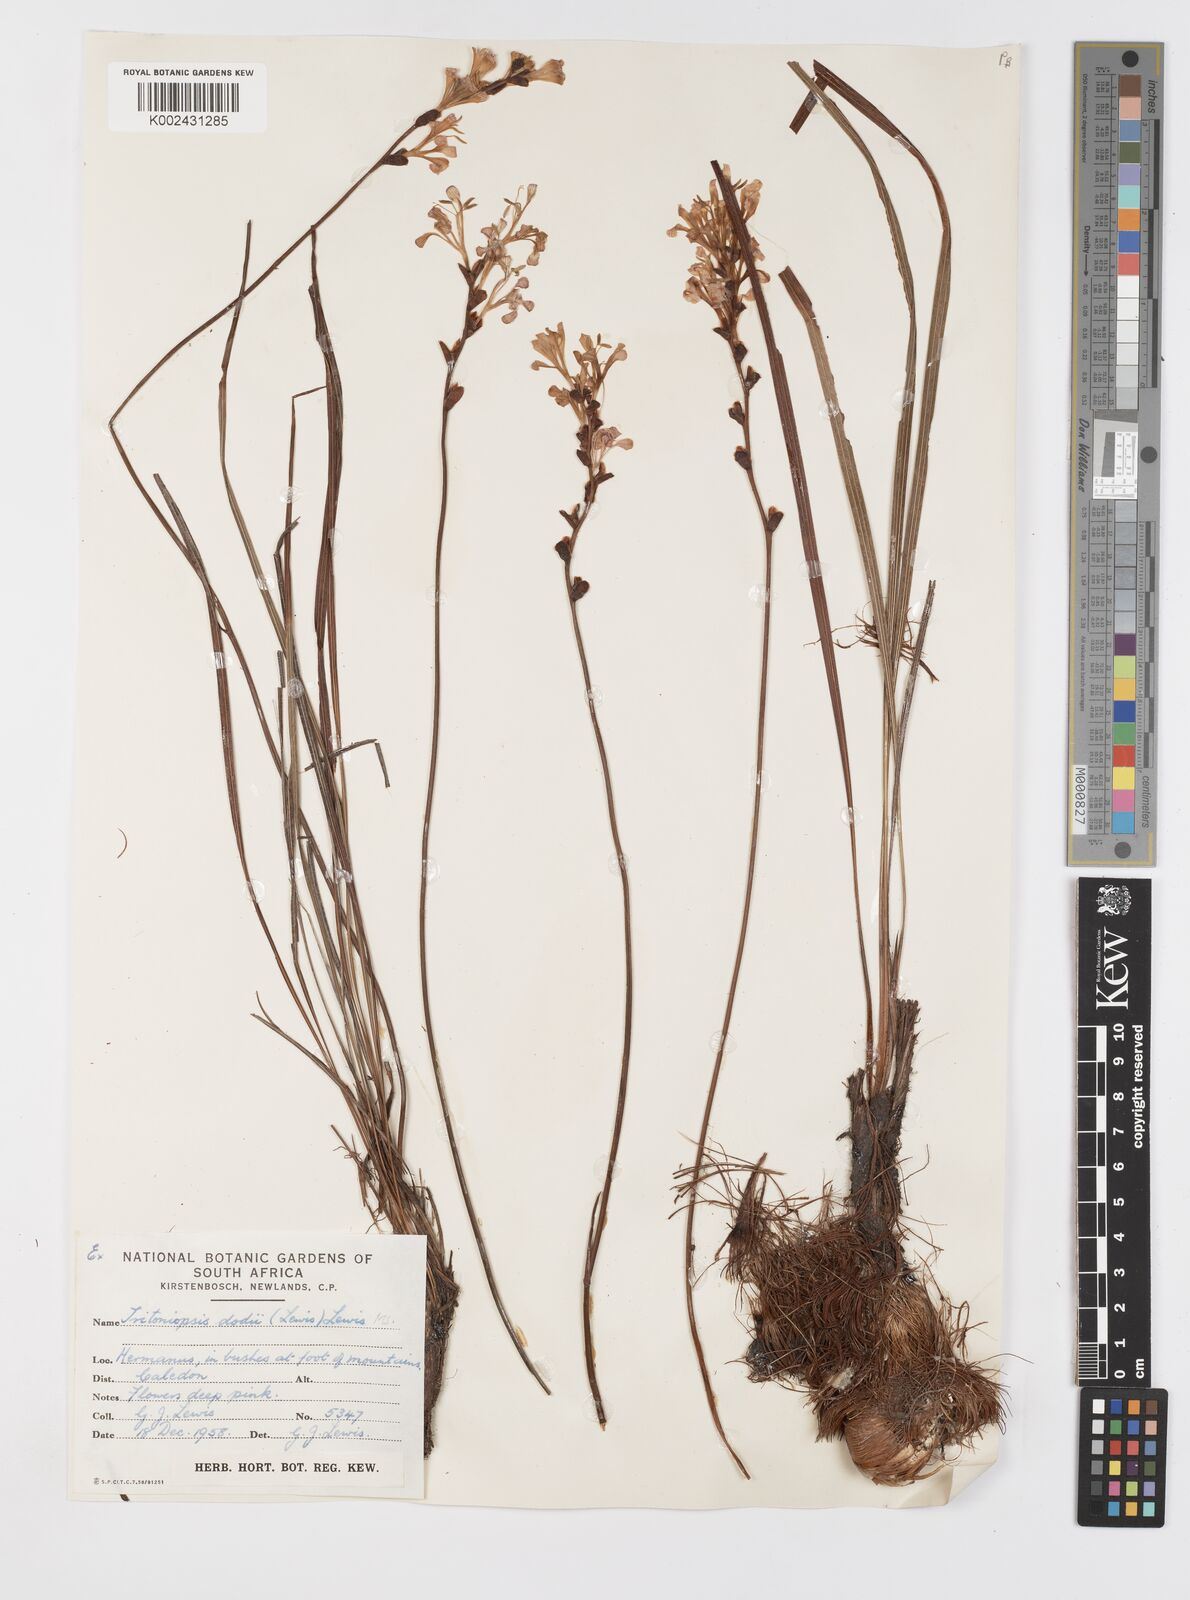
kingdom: Plantae
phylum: Tracheophyta
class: Liliopsida
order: Asparagales
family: Iridaceae
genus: Tritoniopsis
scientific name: Tritoniopsis dodii
